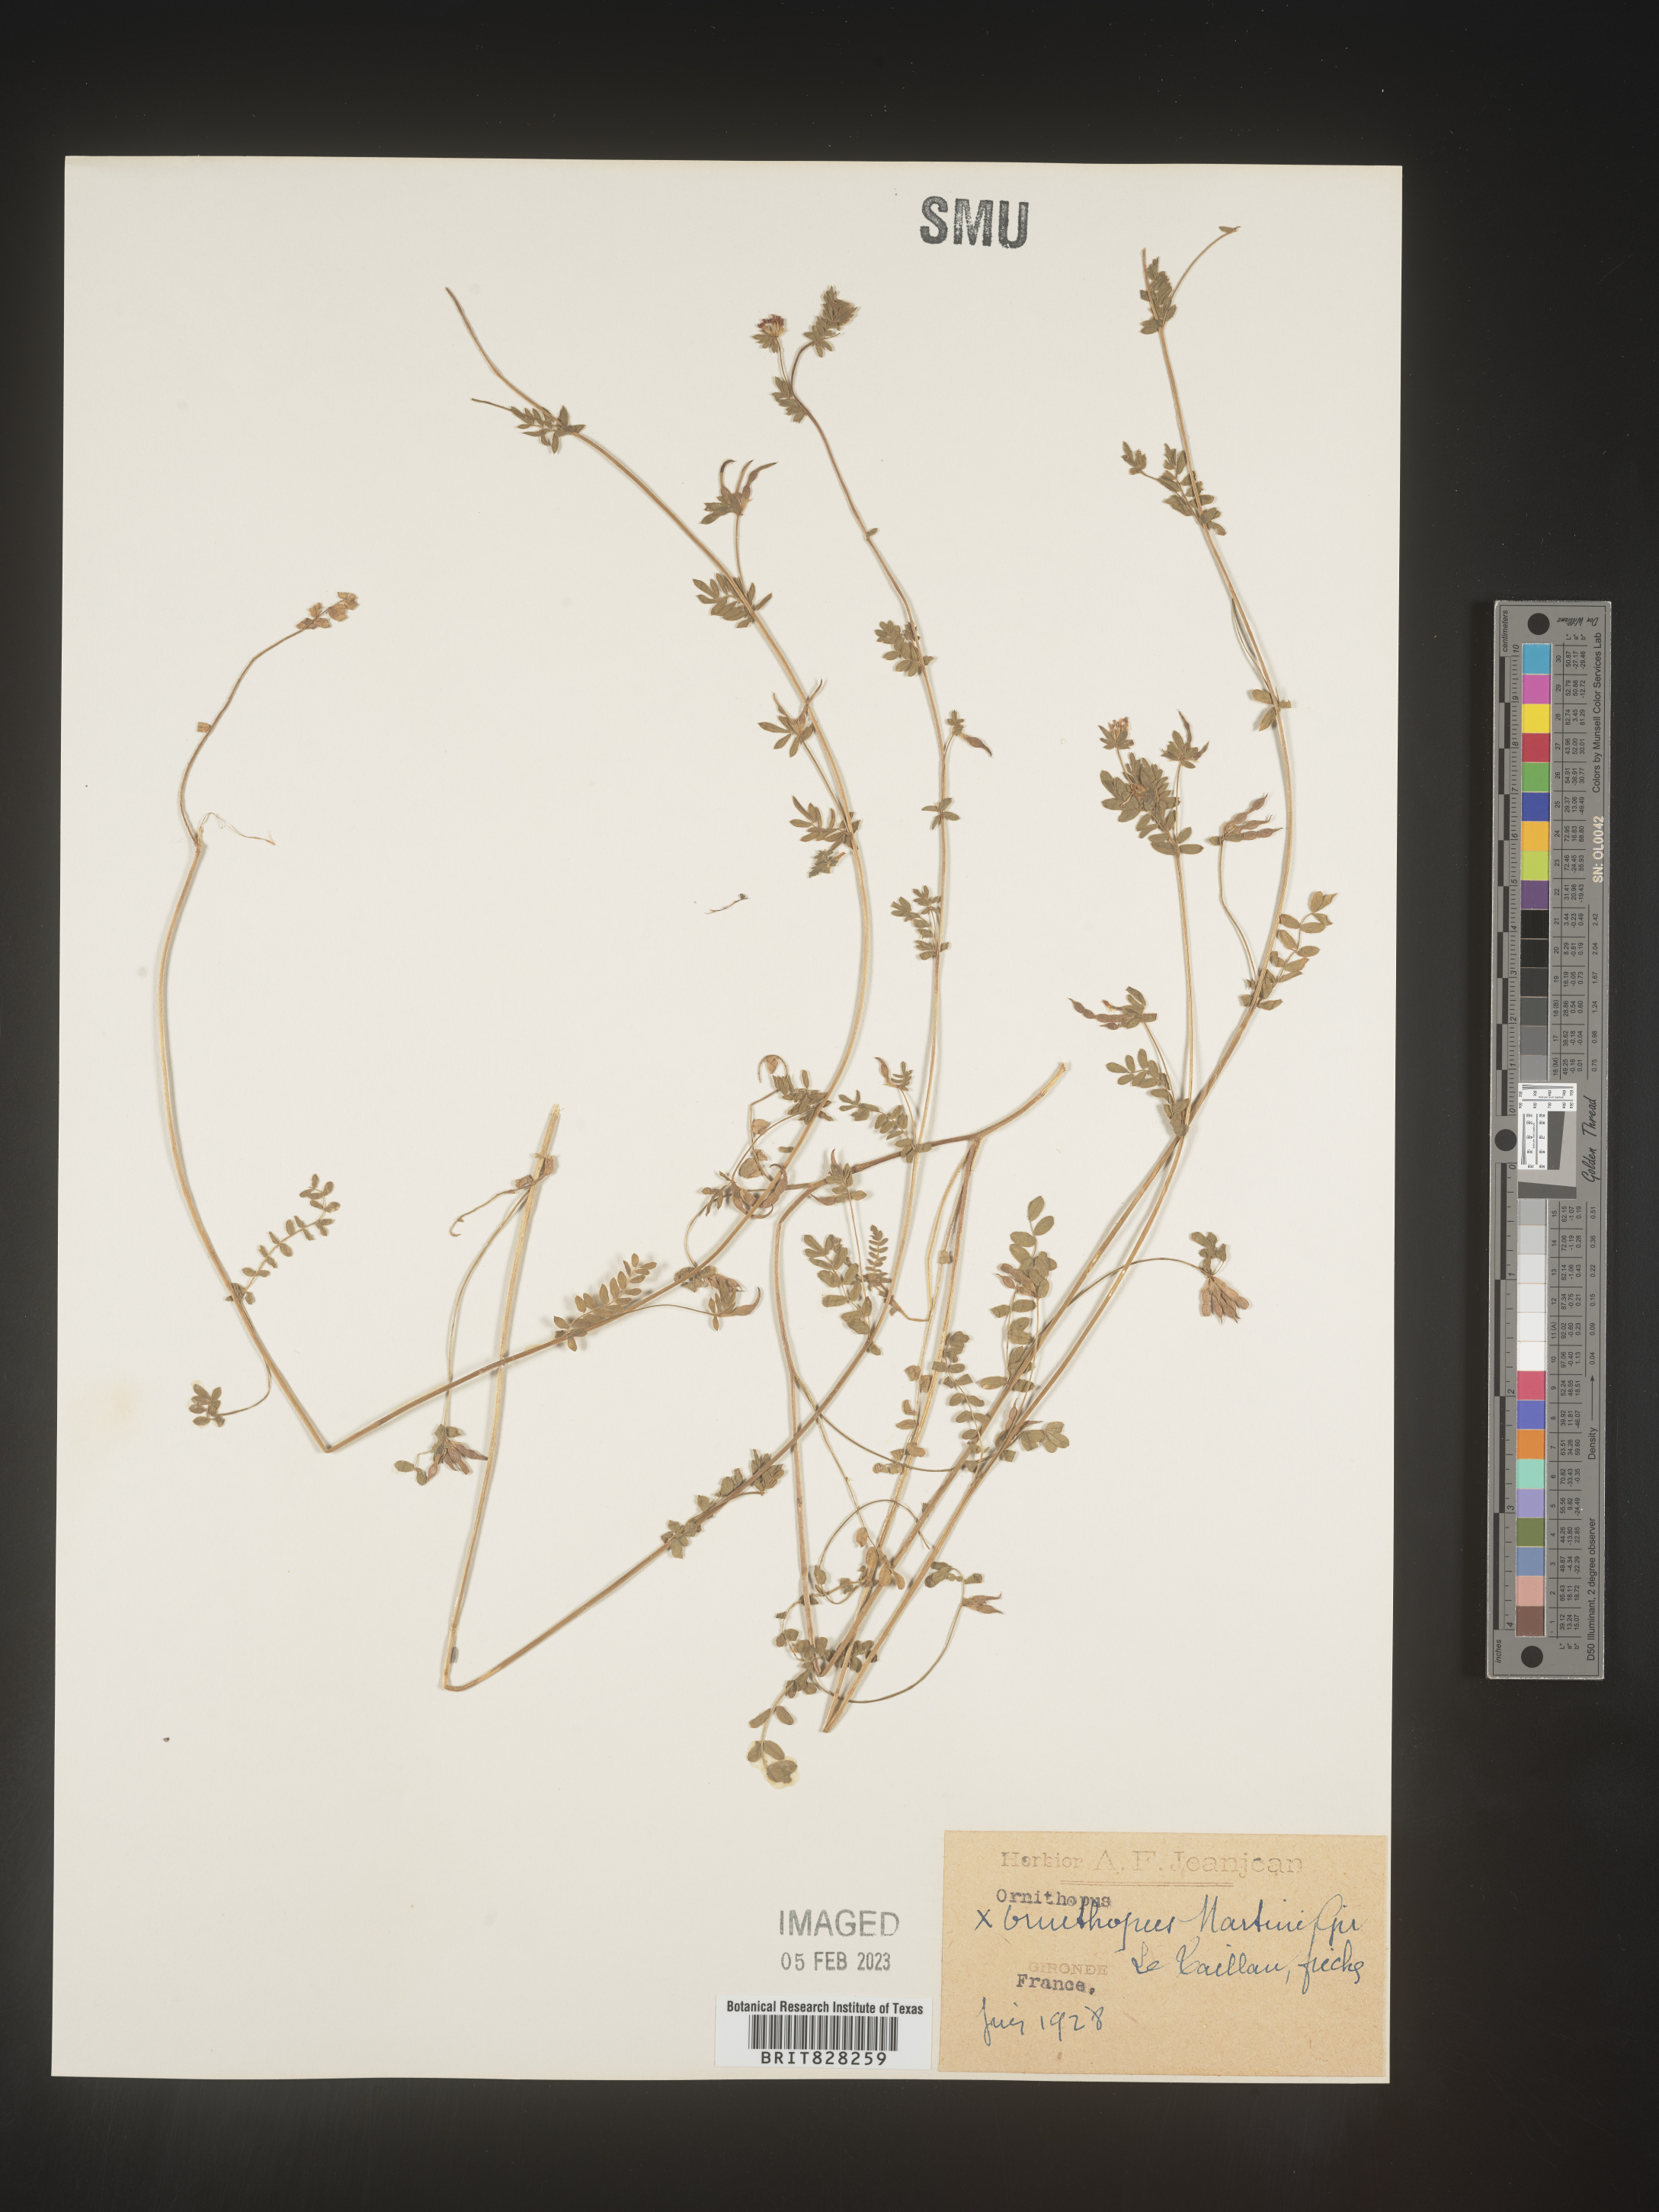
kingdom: Plantae
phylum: Tracheophyta
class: Magnoliopsida
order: Fabales
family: Fabaceae
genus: Ornithopus
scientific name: Ornithopus
